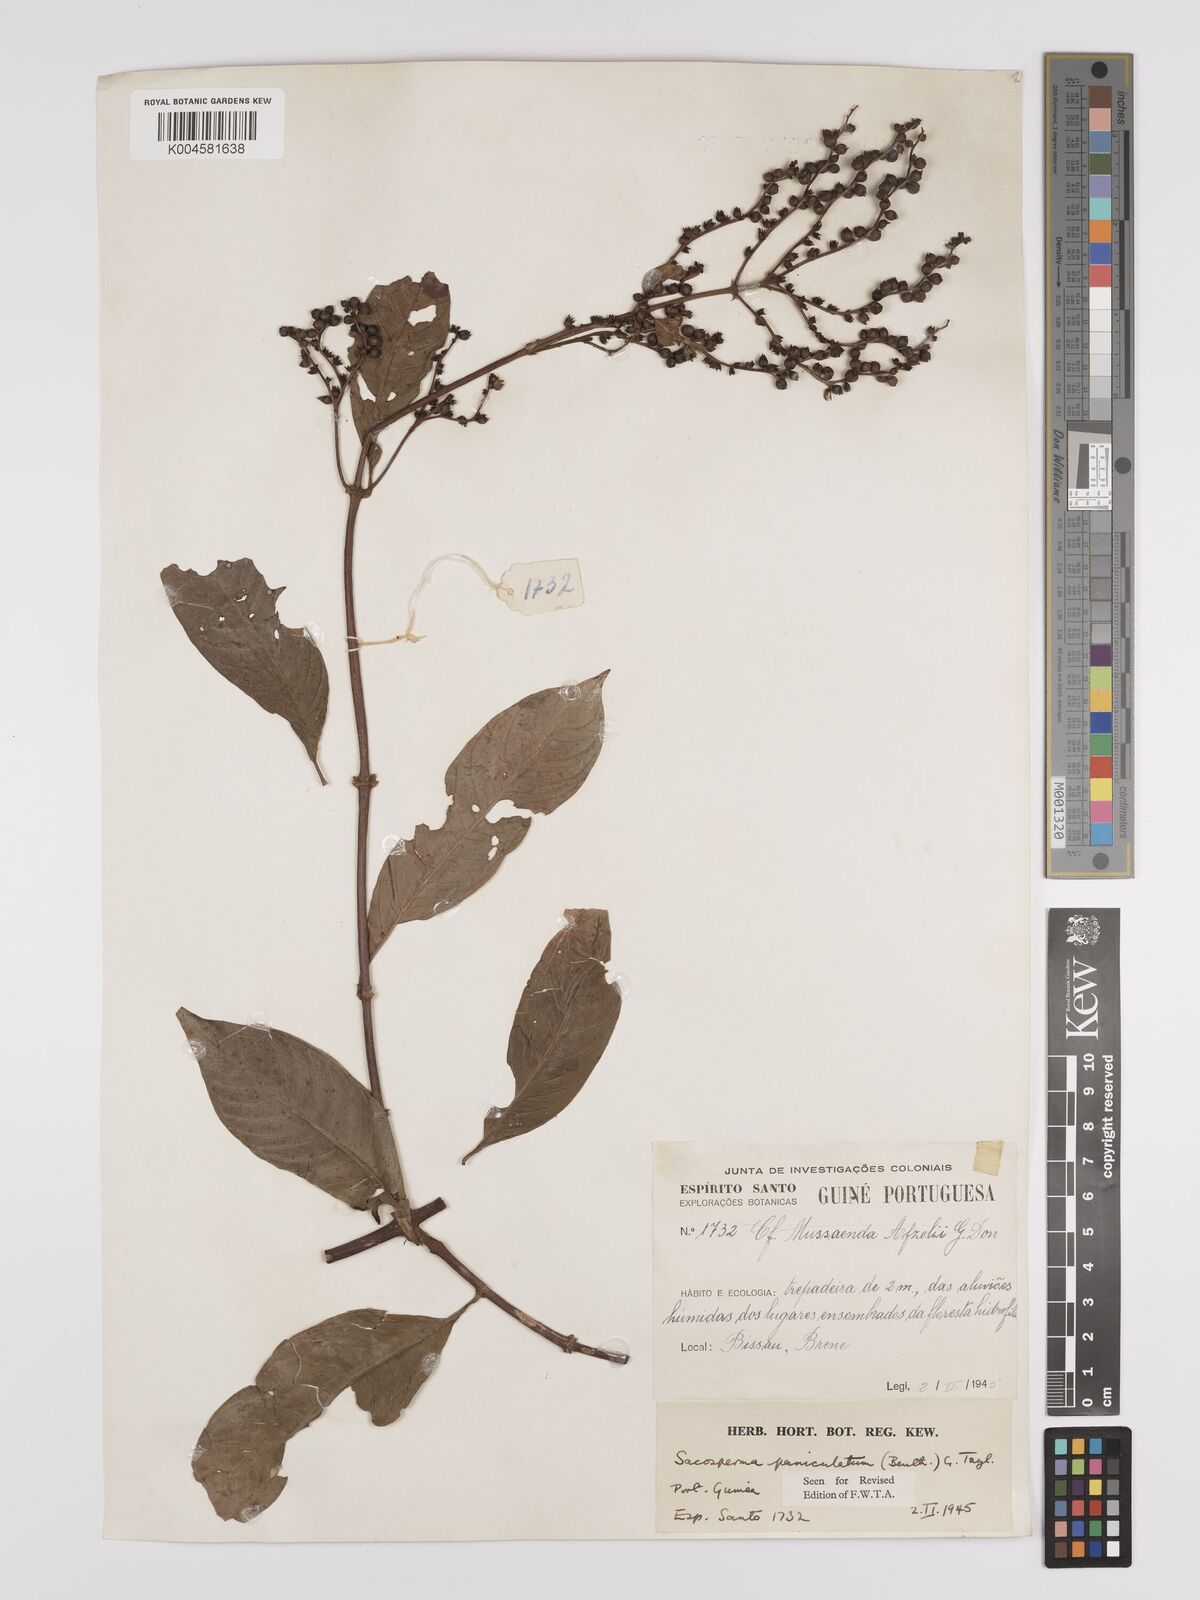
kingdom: Plantae
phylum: Tracheophyta
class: Magnoliopsida
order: Gentianales
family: Rubiaceae
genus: Sacosperma
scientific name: Sacosperma paniculatum
